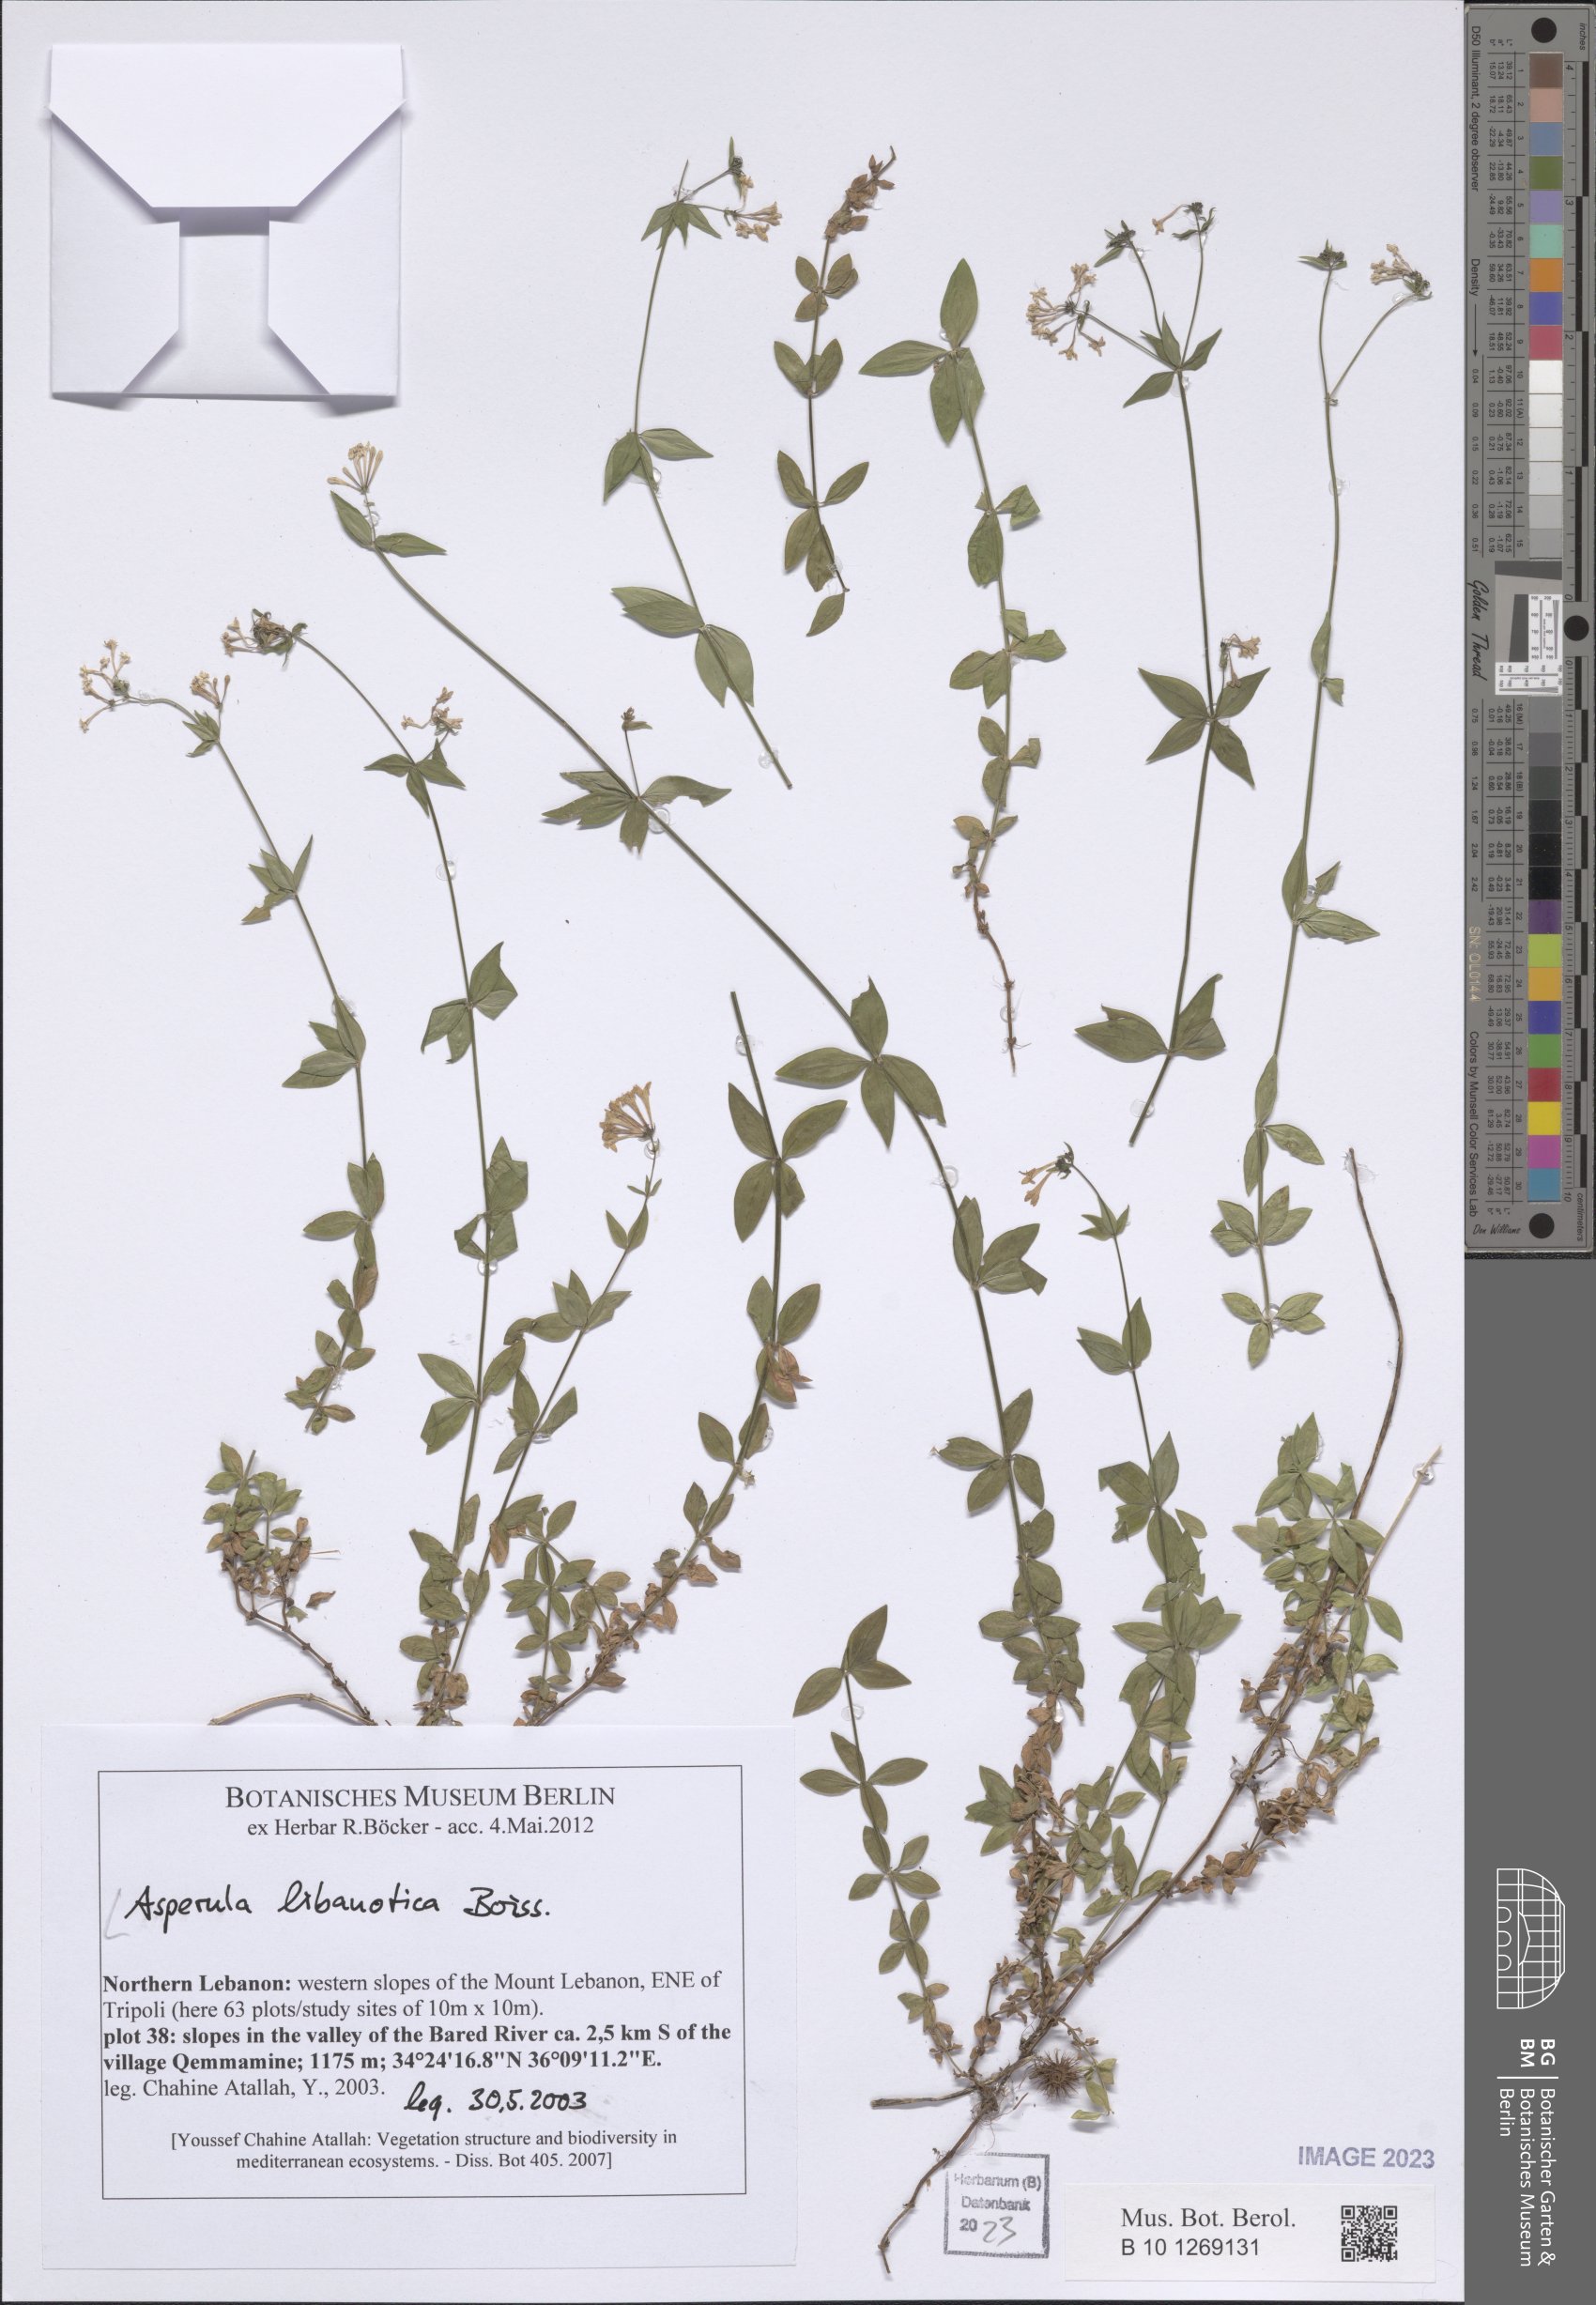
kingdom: Plantae
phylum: Tracheophyta
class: Magnoliopsida
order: Gentianales
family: Rubiaceae
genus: Asperula
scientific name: Asperula libanotica
